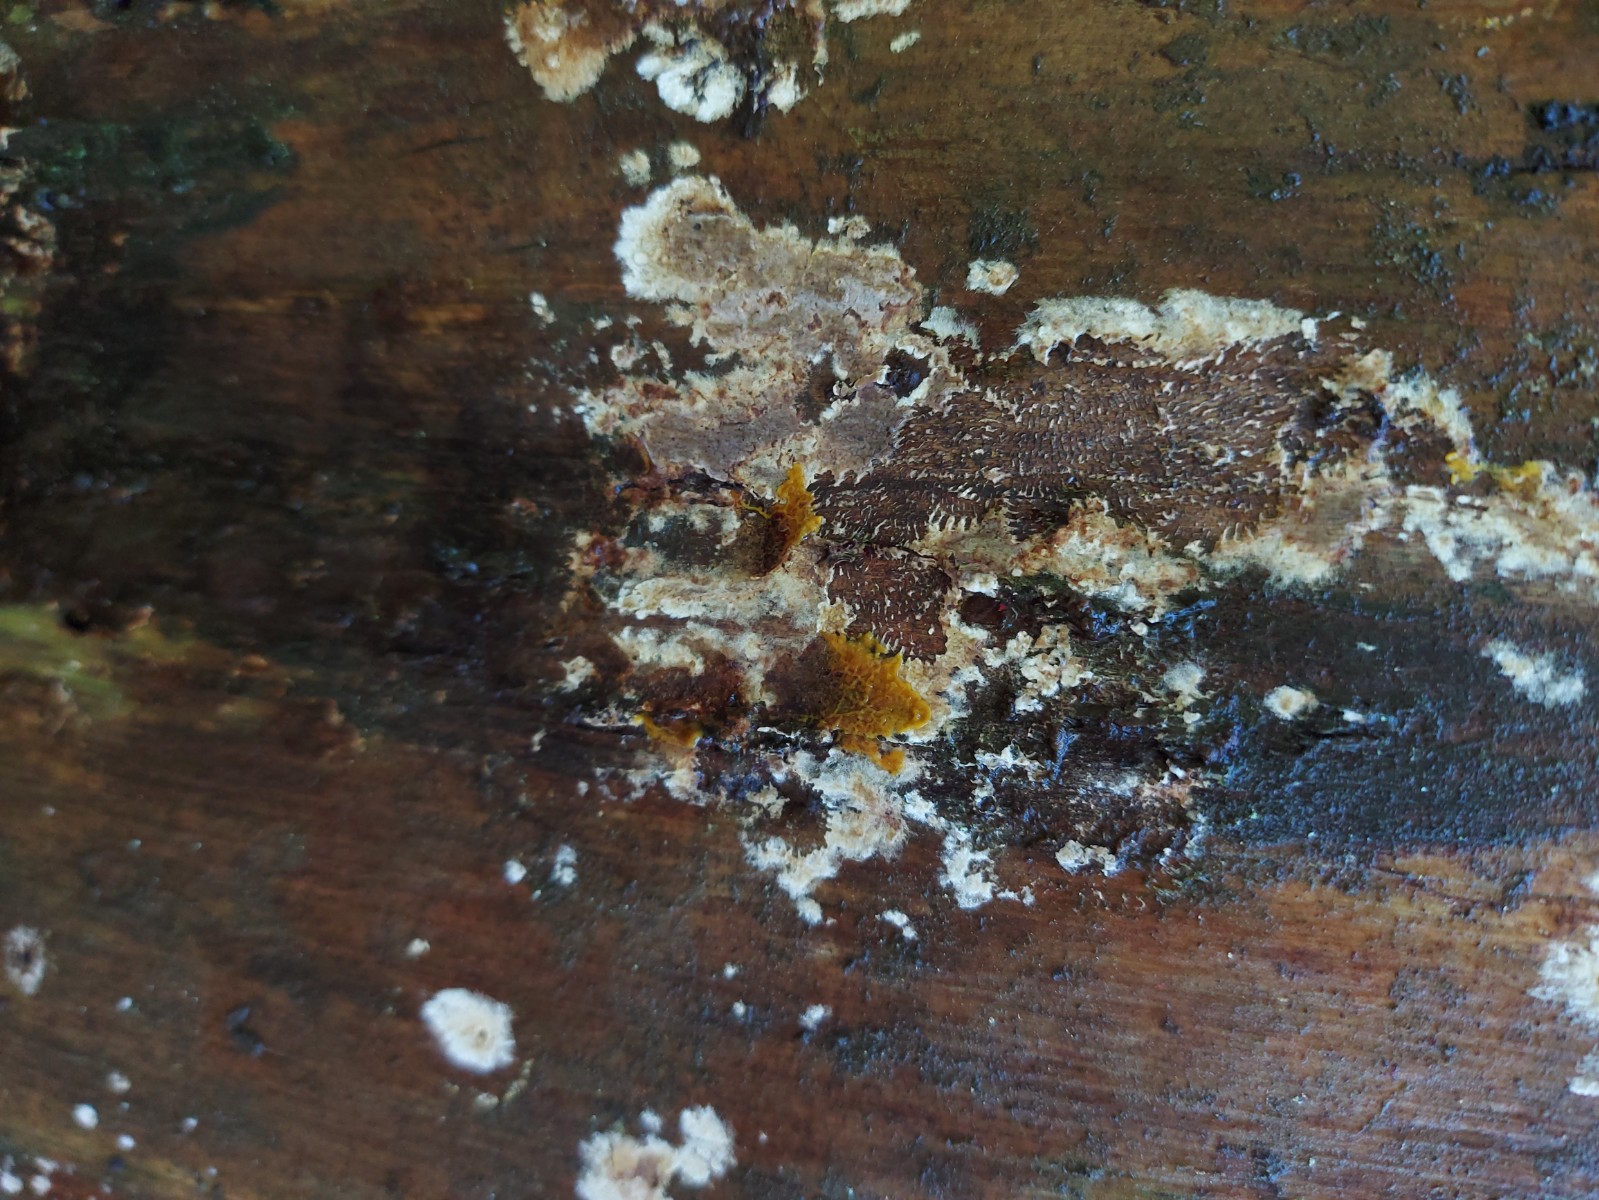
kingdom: Protozoa
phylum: Mycetozoa
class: Myxomycetes
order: Physarales
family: Physaraceae
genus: Badhamia
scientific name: Badhamia utricularis
